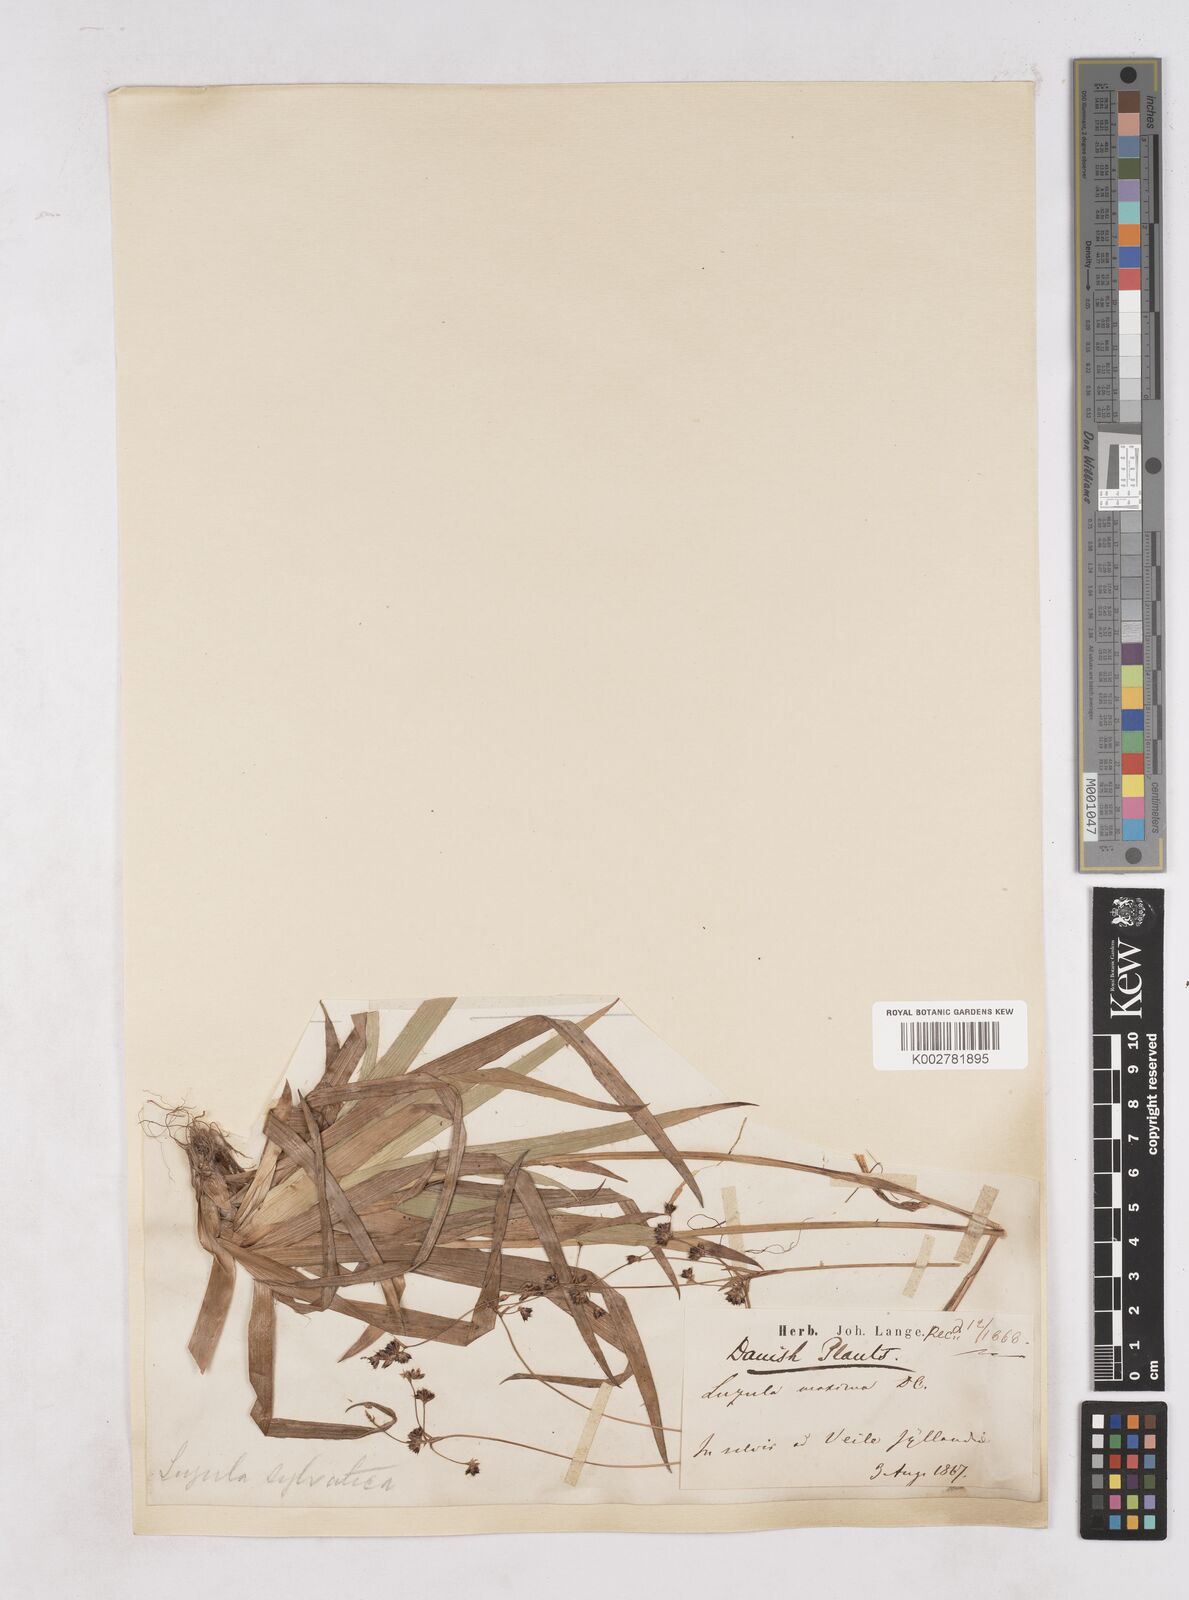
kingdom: Plantae
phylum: Tracheophyta
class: Liliopsida
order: Poales
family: Juncaceae
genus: Luzula
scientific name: Luzula sylvatica
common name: Great wood-rush
